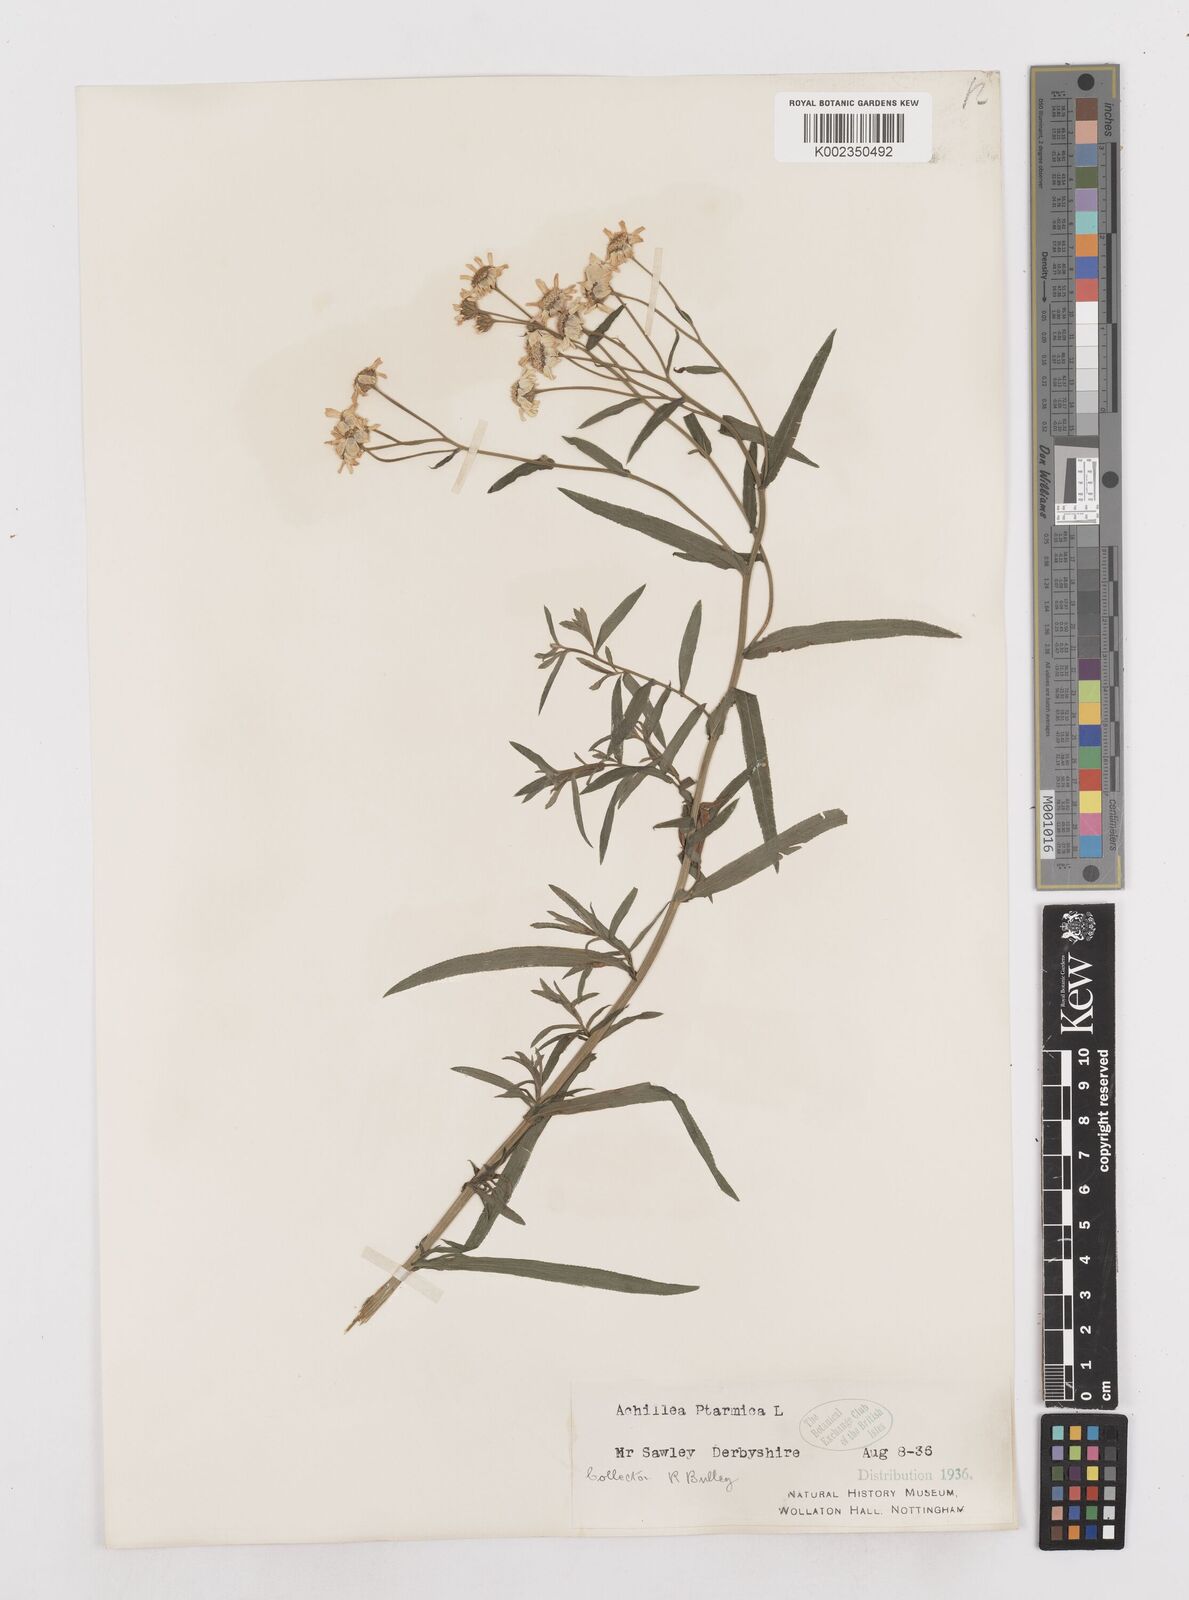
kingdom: Plantae
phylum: Tracheophyta
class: Magnoliopsida
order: Asterales
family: Asteraceae
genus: Achillea
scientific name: Achillea ptarmica
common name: Sneezeweed
